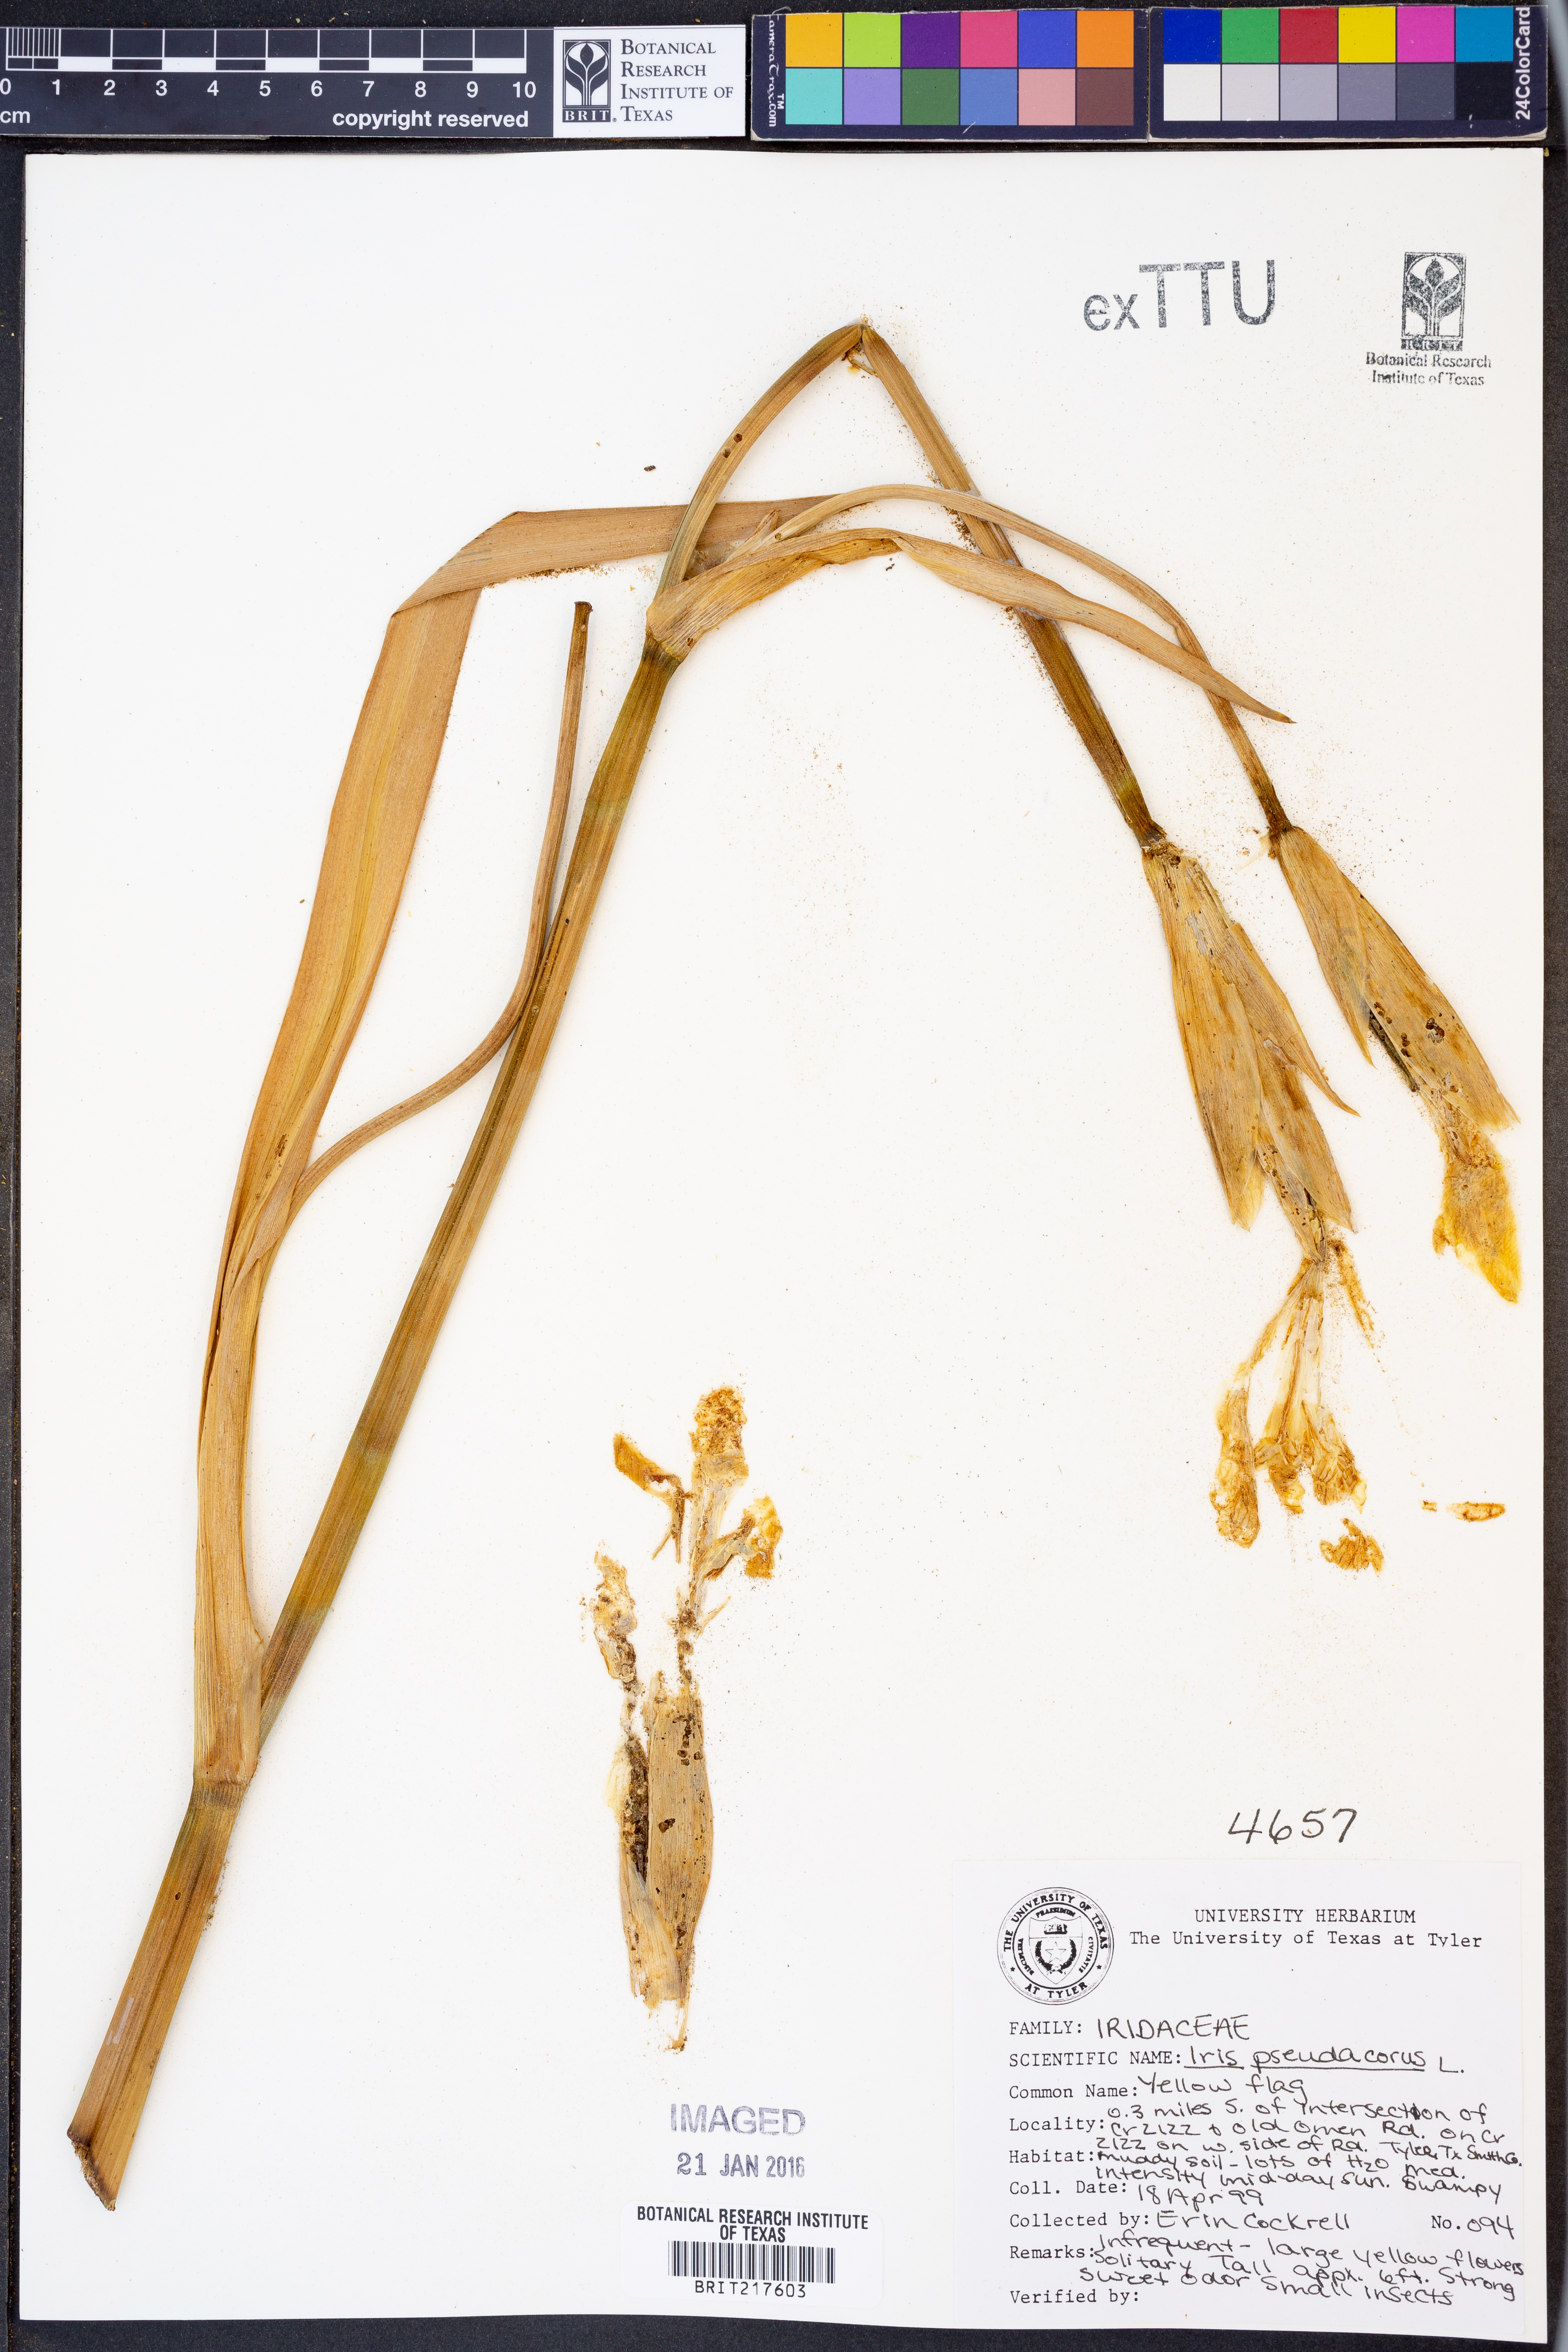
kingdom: Plantae
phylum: Tracheophyta
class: Liliopsida
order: Asparagales
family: Iridaceae
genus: Iris
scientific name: Iris pseudacorus
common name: Yellow flag
